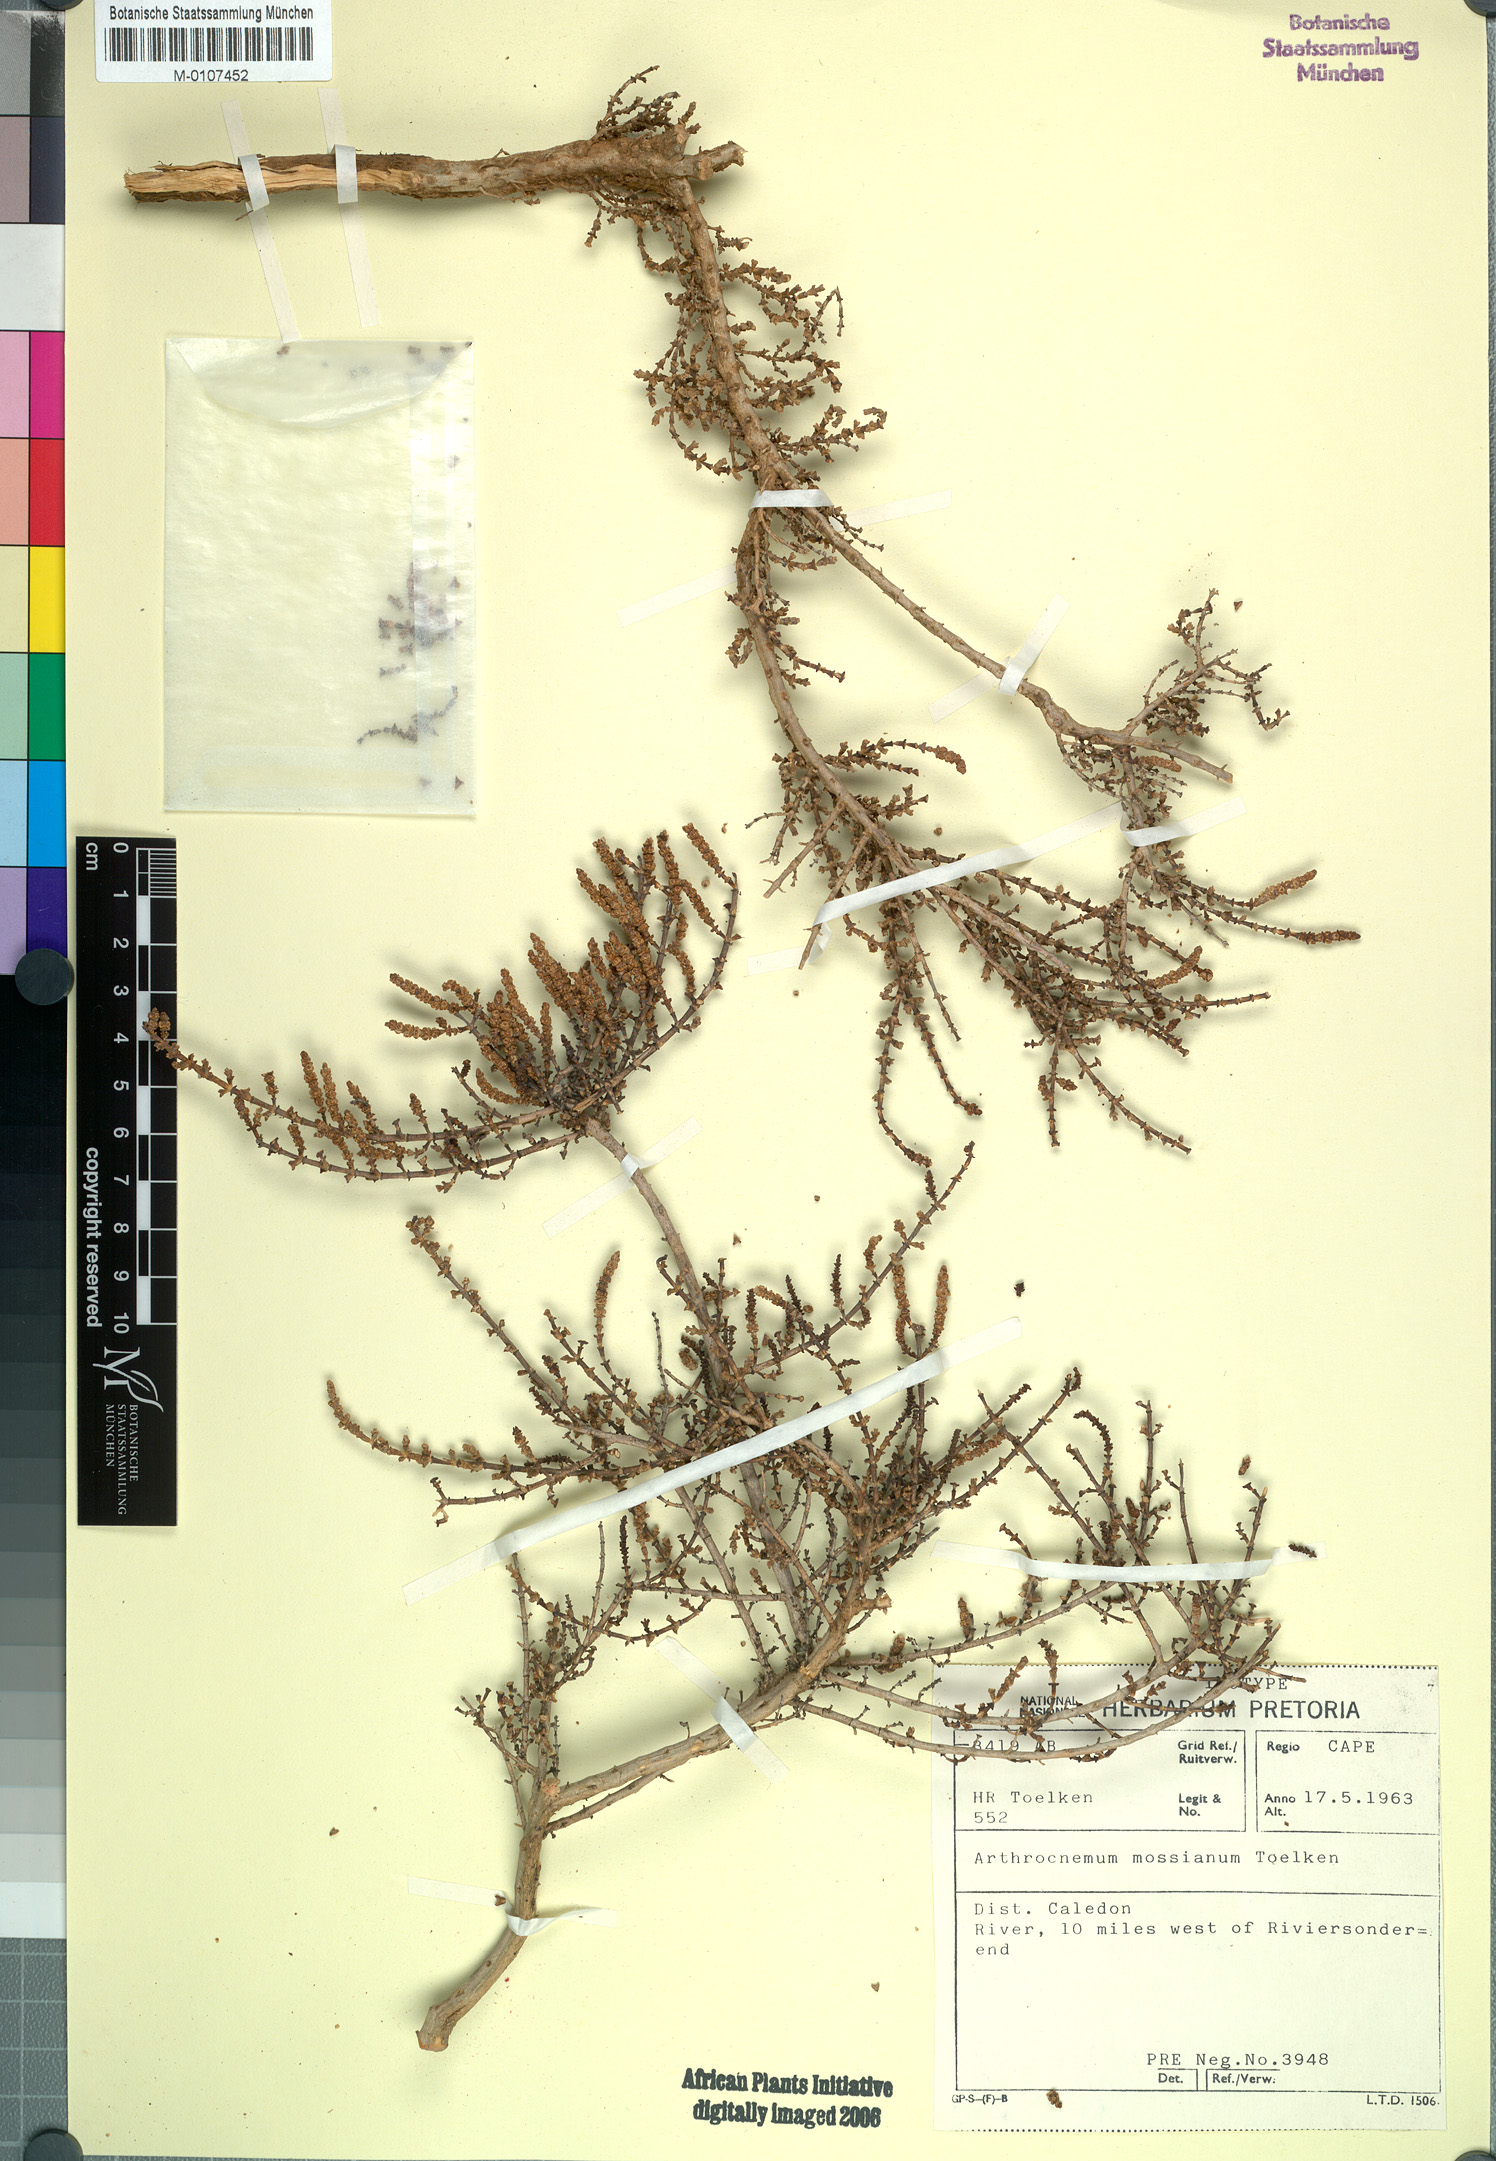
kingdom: Plantae
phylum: Tracheophyta
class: Magnoliopsida
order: Caryophyllales
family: Amaranthaceae
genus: Salicornia
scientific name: Salicornia mossiana
